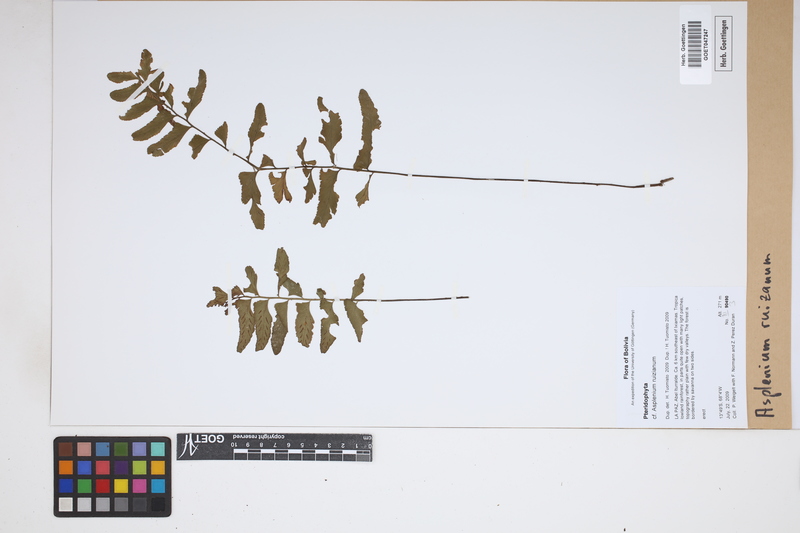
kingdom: Plantae
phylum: Tracheophyta
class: Polypodiopsida
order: Polypodiales
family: Aspleniaceae
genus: Asplenium
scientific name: Asplenium ruizianum
